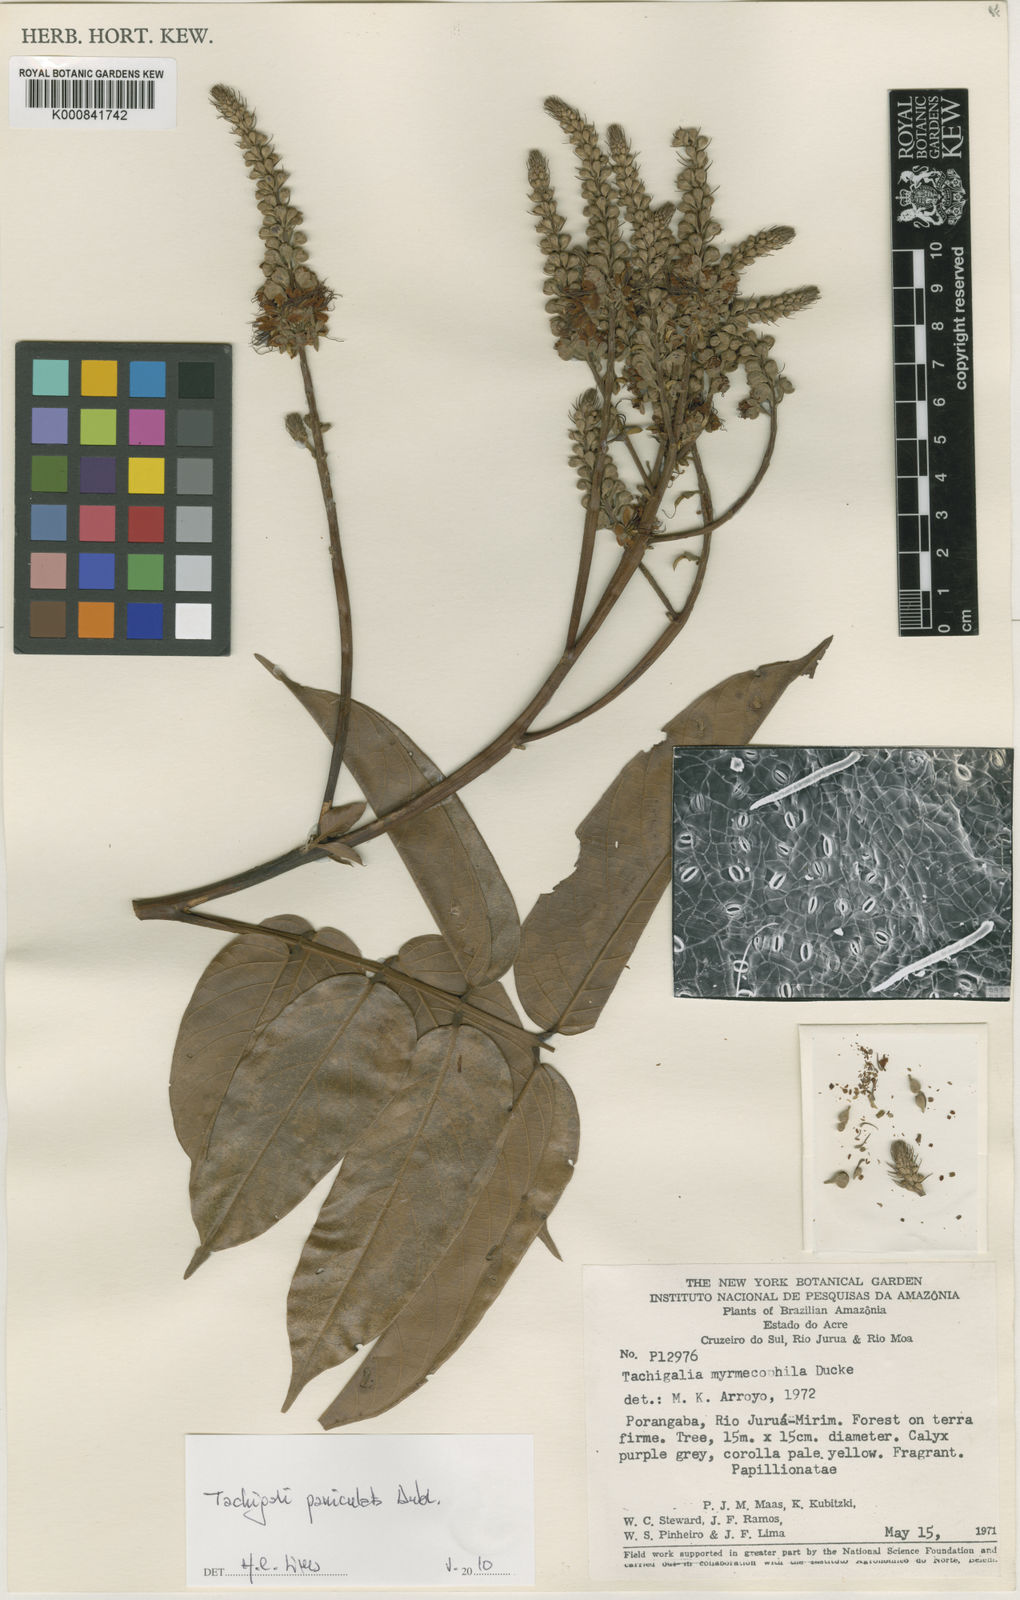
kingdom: Plantae
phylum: Tracheophyta
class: Magnoliopsida
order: Fabales
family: Fabaceae
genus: Tachigali
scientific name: Tachigali paniculata
